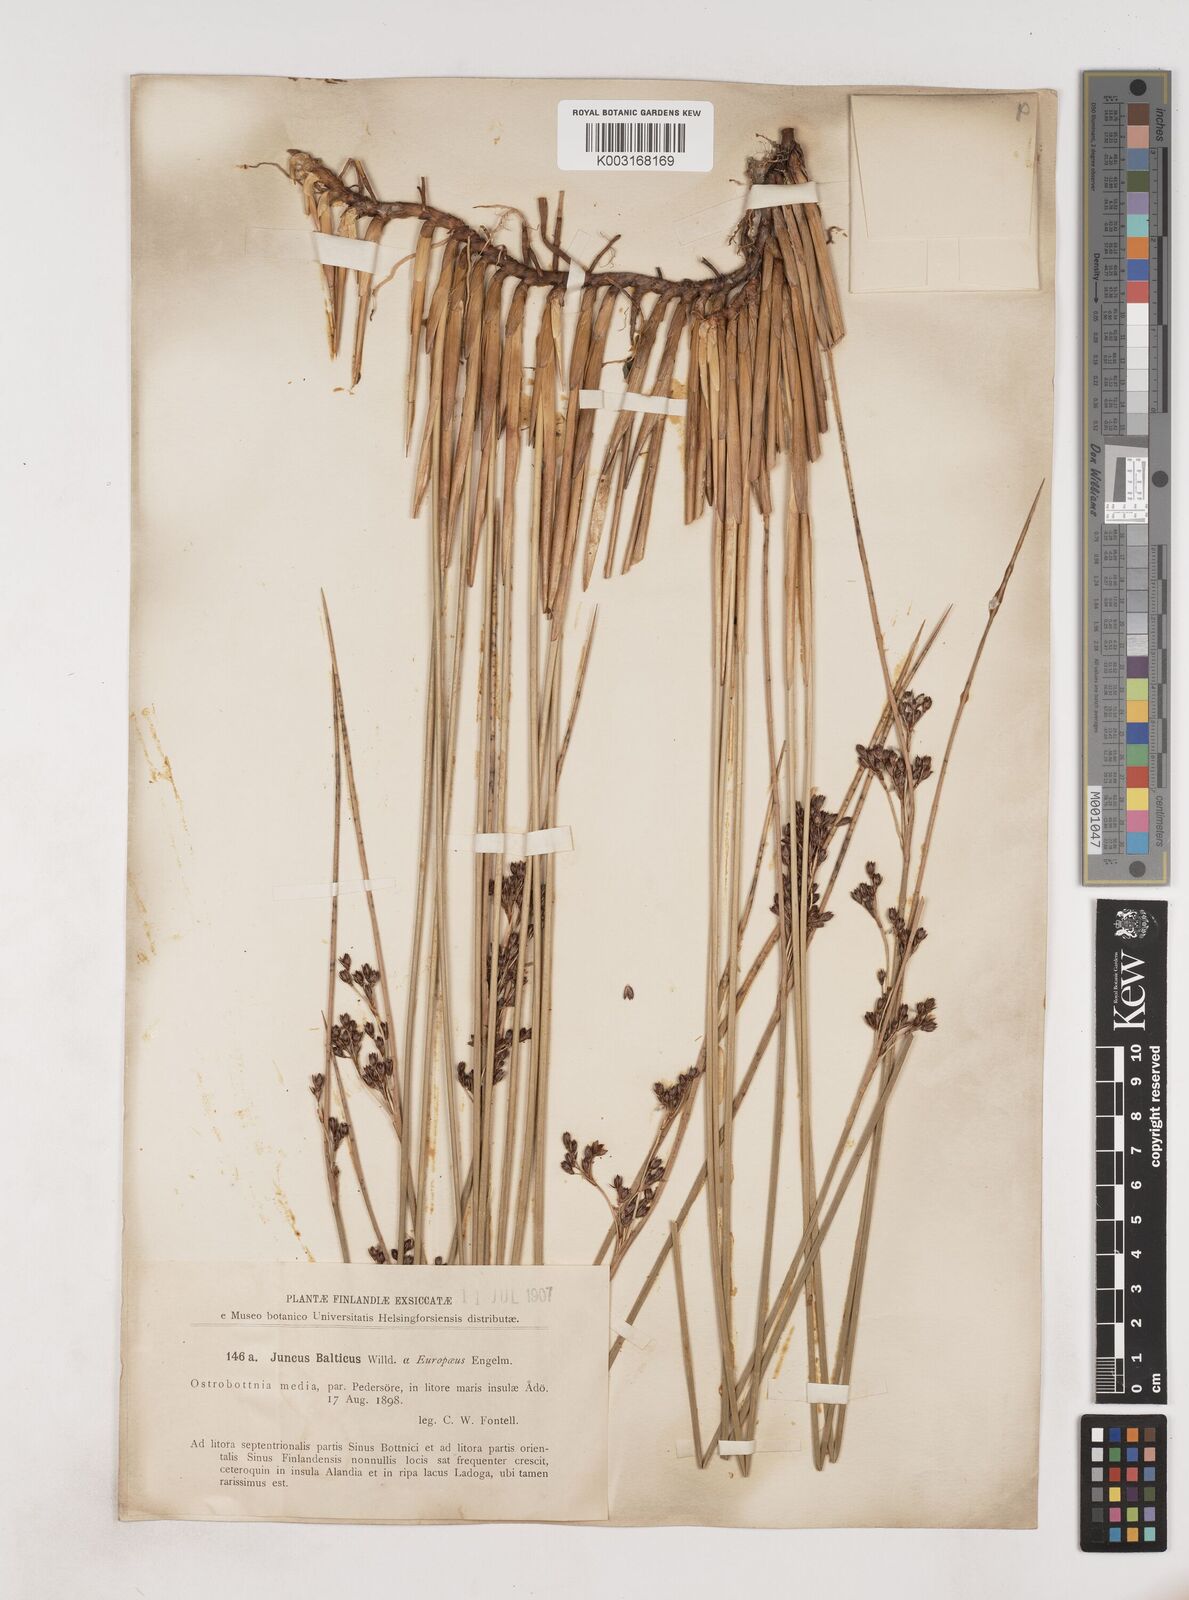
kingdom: Plantae
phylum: Tracheophyta
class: Liliopsida
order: Poales
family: Juncaceae
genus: Juncus
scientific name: Juncus balticus
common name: Baltic rush
